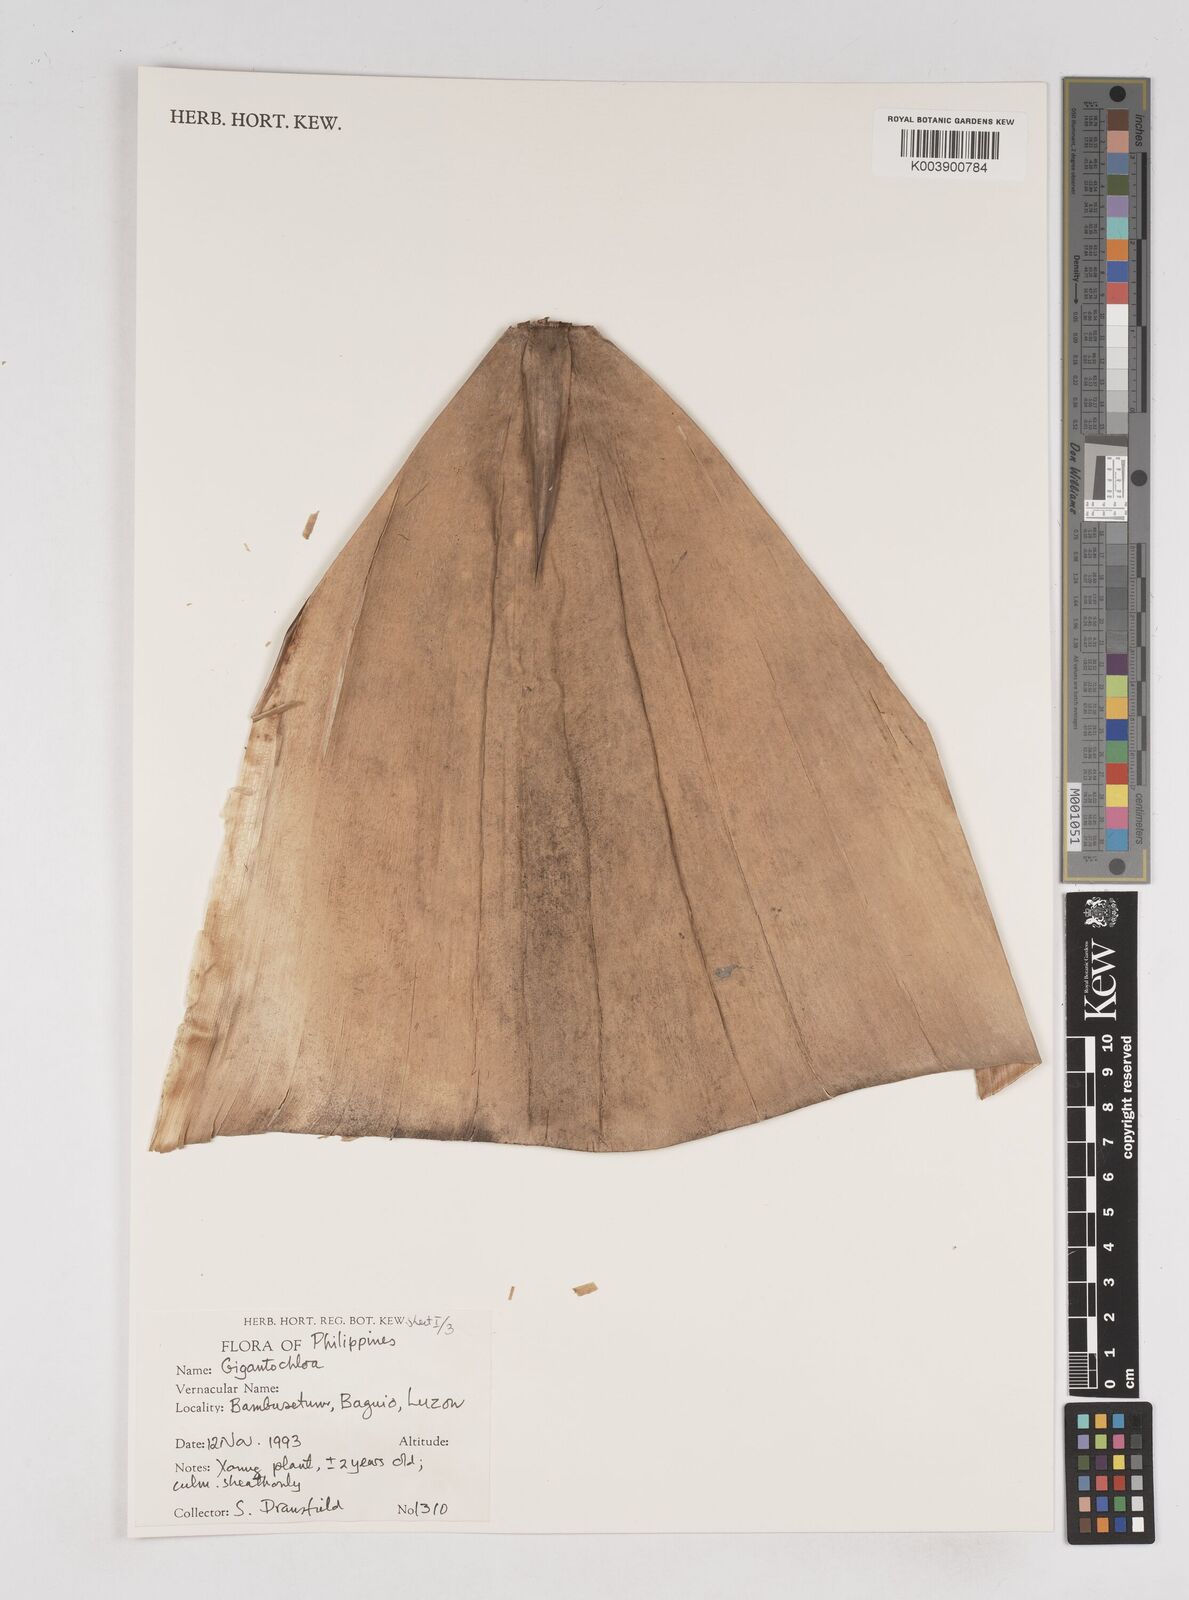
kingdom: Plantae
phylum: Tracheophyta
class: Liliopsida
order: Poales
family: Poaceae
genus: Gigantochloa
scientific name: Gigantochloa
